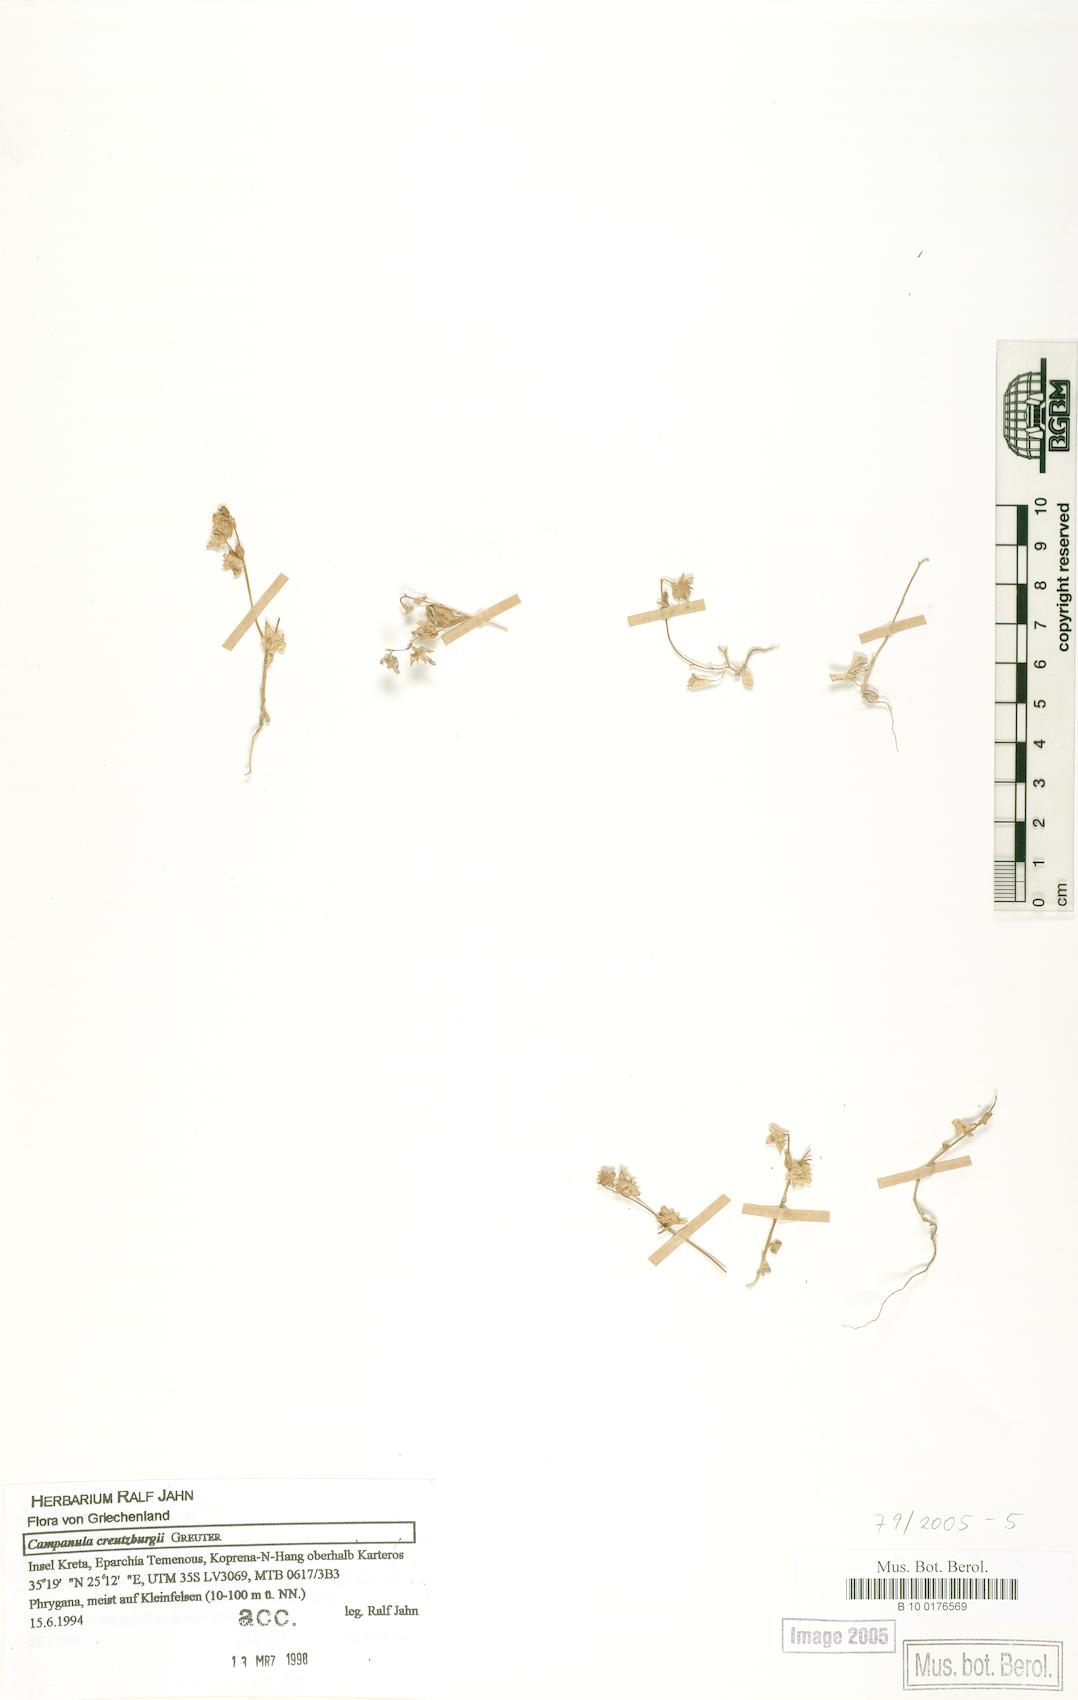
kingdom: Plantae
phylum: Tracheophyta
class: Magnoliopsida
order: Asterales
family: Campanulaceae
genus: Campanula
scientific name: Campanula creutzburgii
